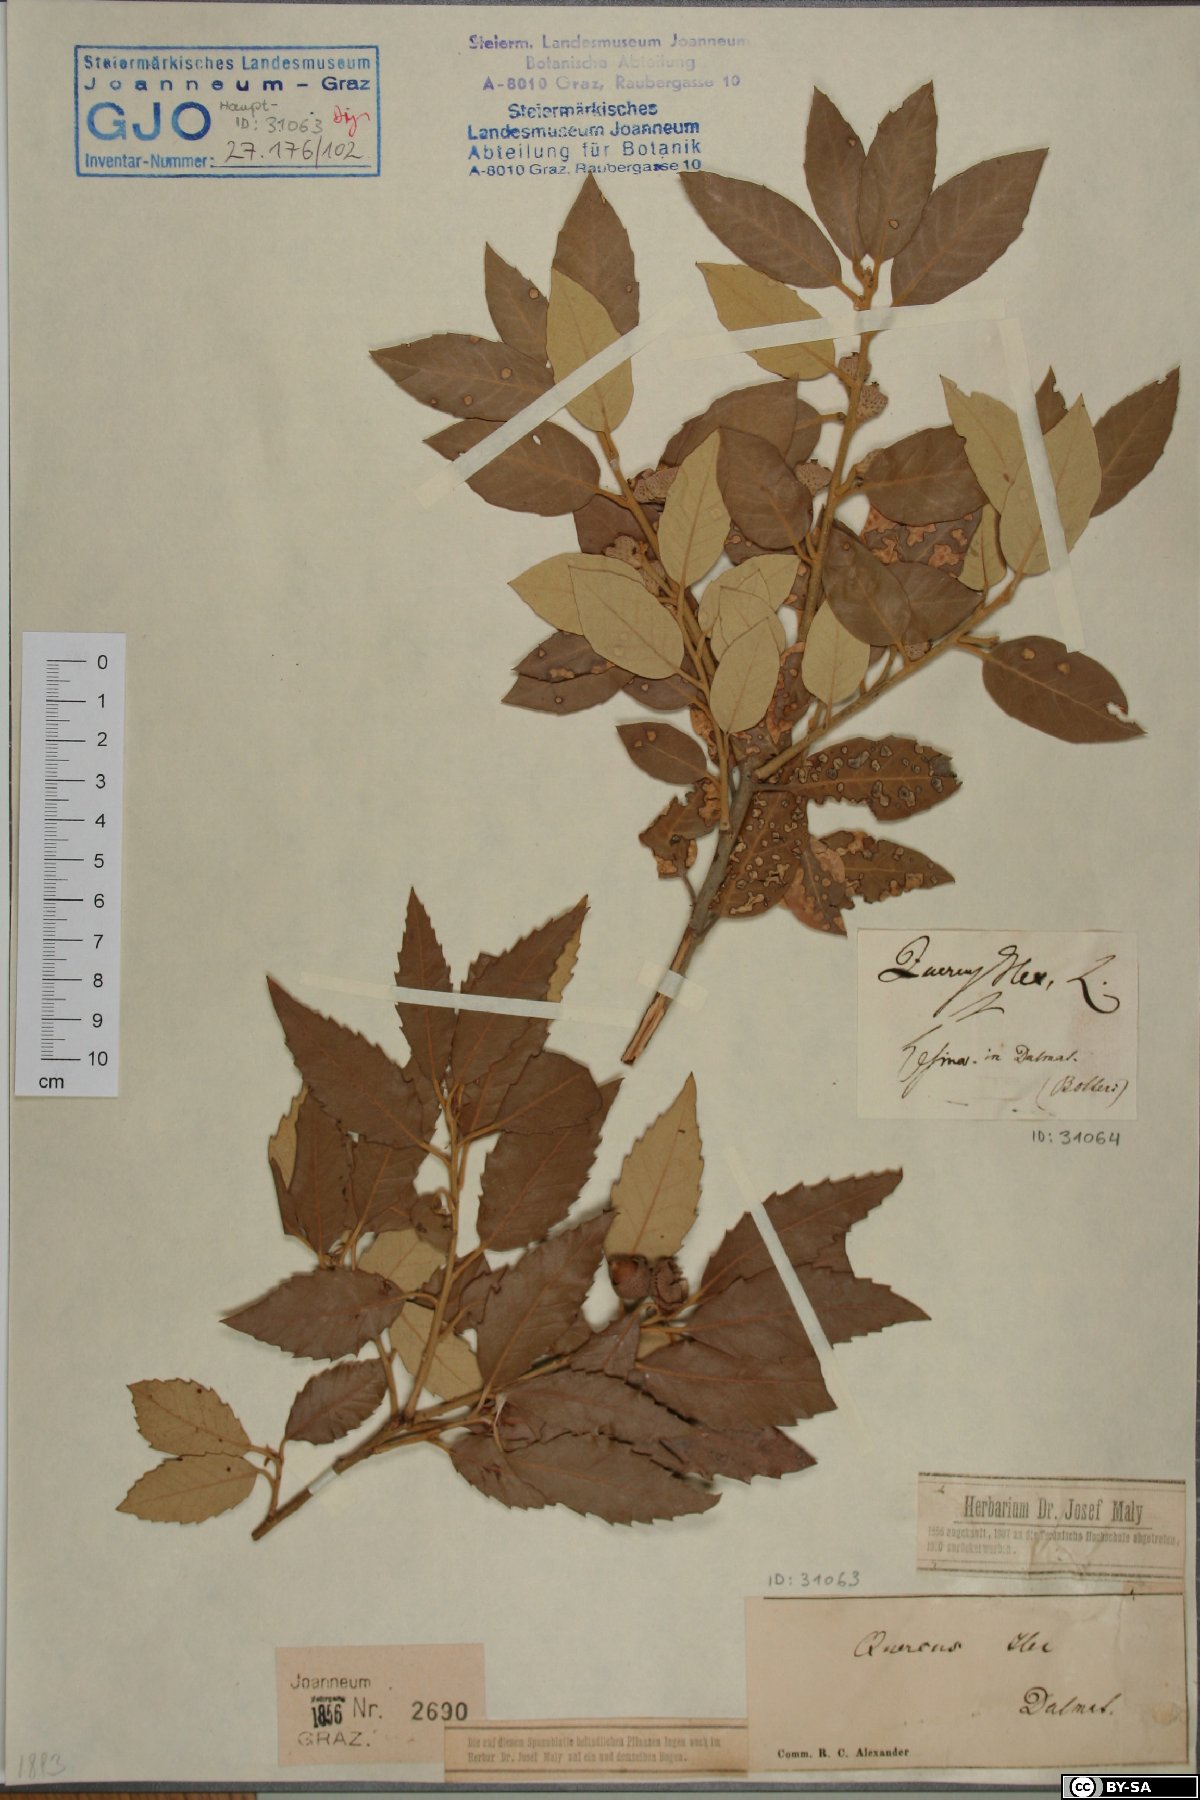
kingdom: Plantae
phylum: Tracheophyta
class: Magnoliopsida
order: Fagales
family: Fagaceae
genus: Quercus
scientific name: Quercus ilex
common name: Evergreen oak
